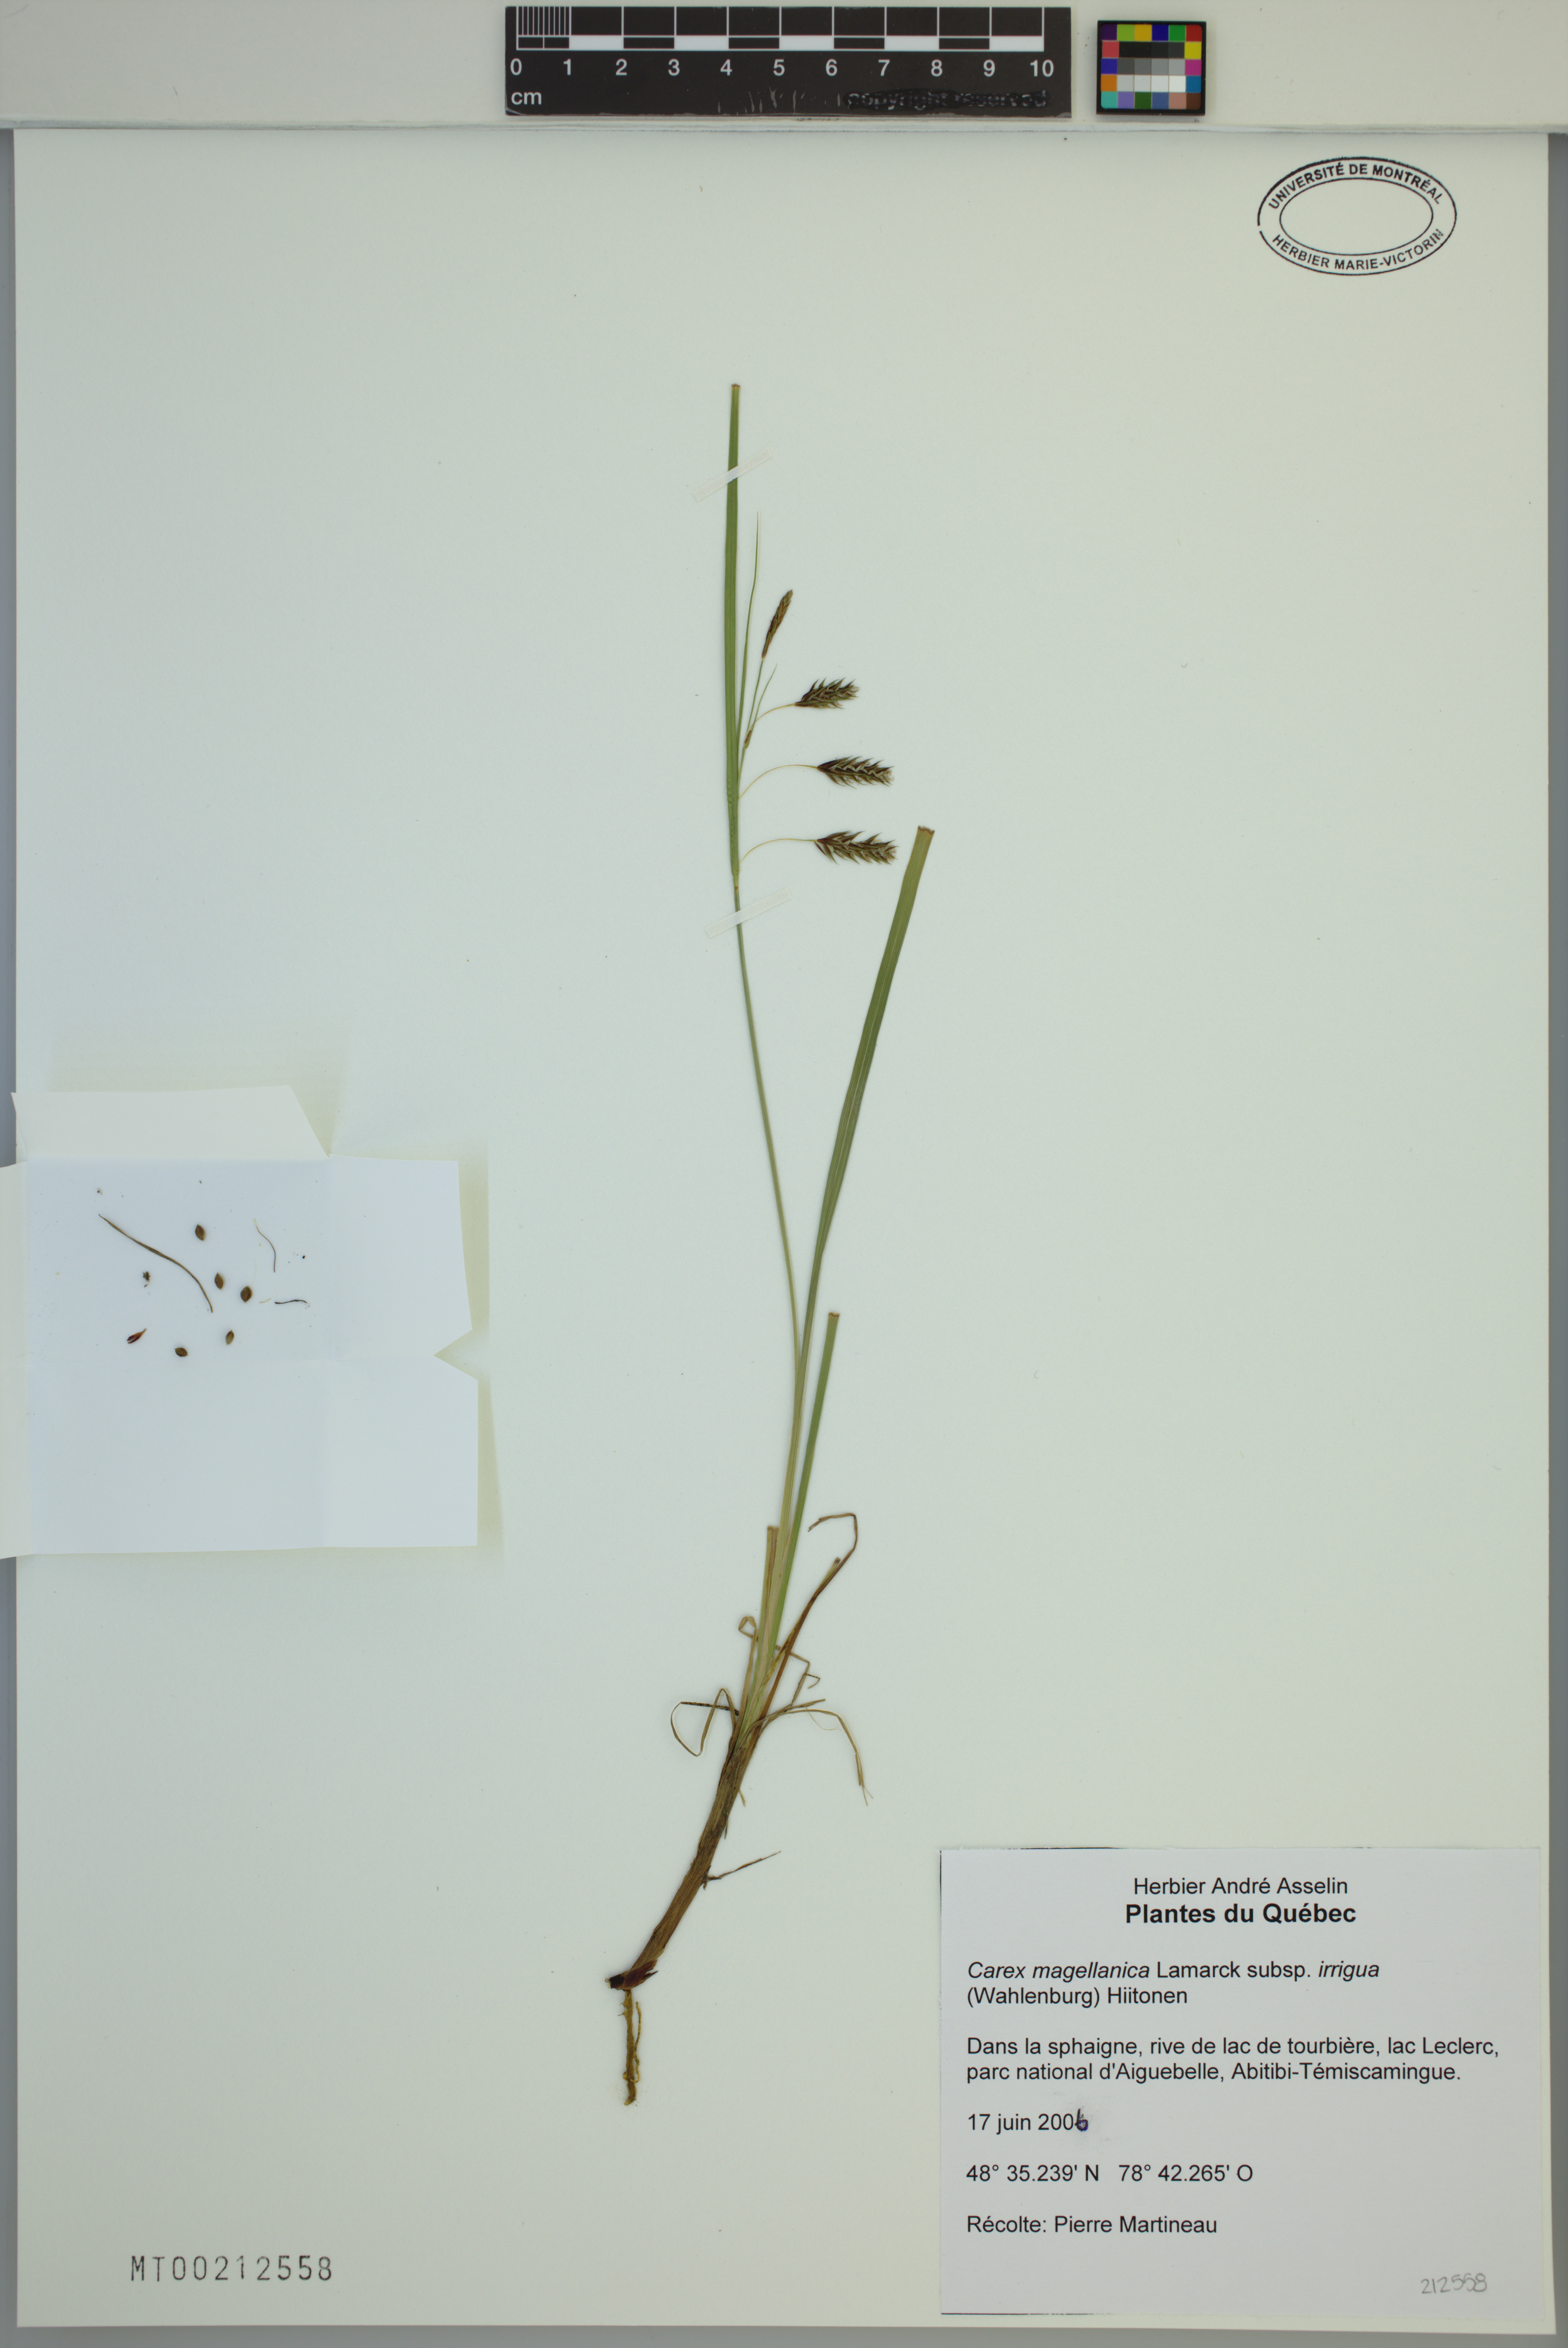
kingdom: Plantae
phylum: Tracheophyta
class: Liliopsida
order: Poales
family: Cyperaceae
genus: Carex
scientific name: Carex magellanica
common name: Bog sedge
